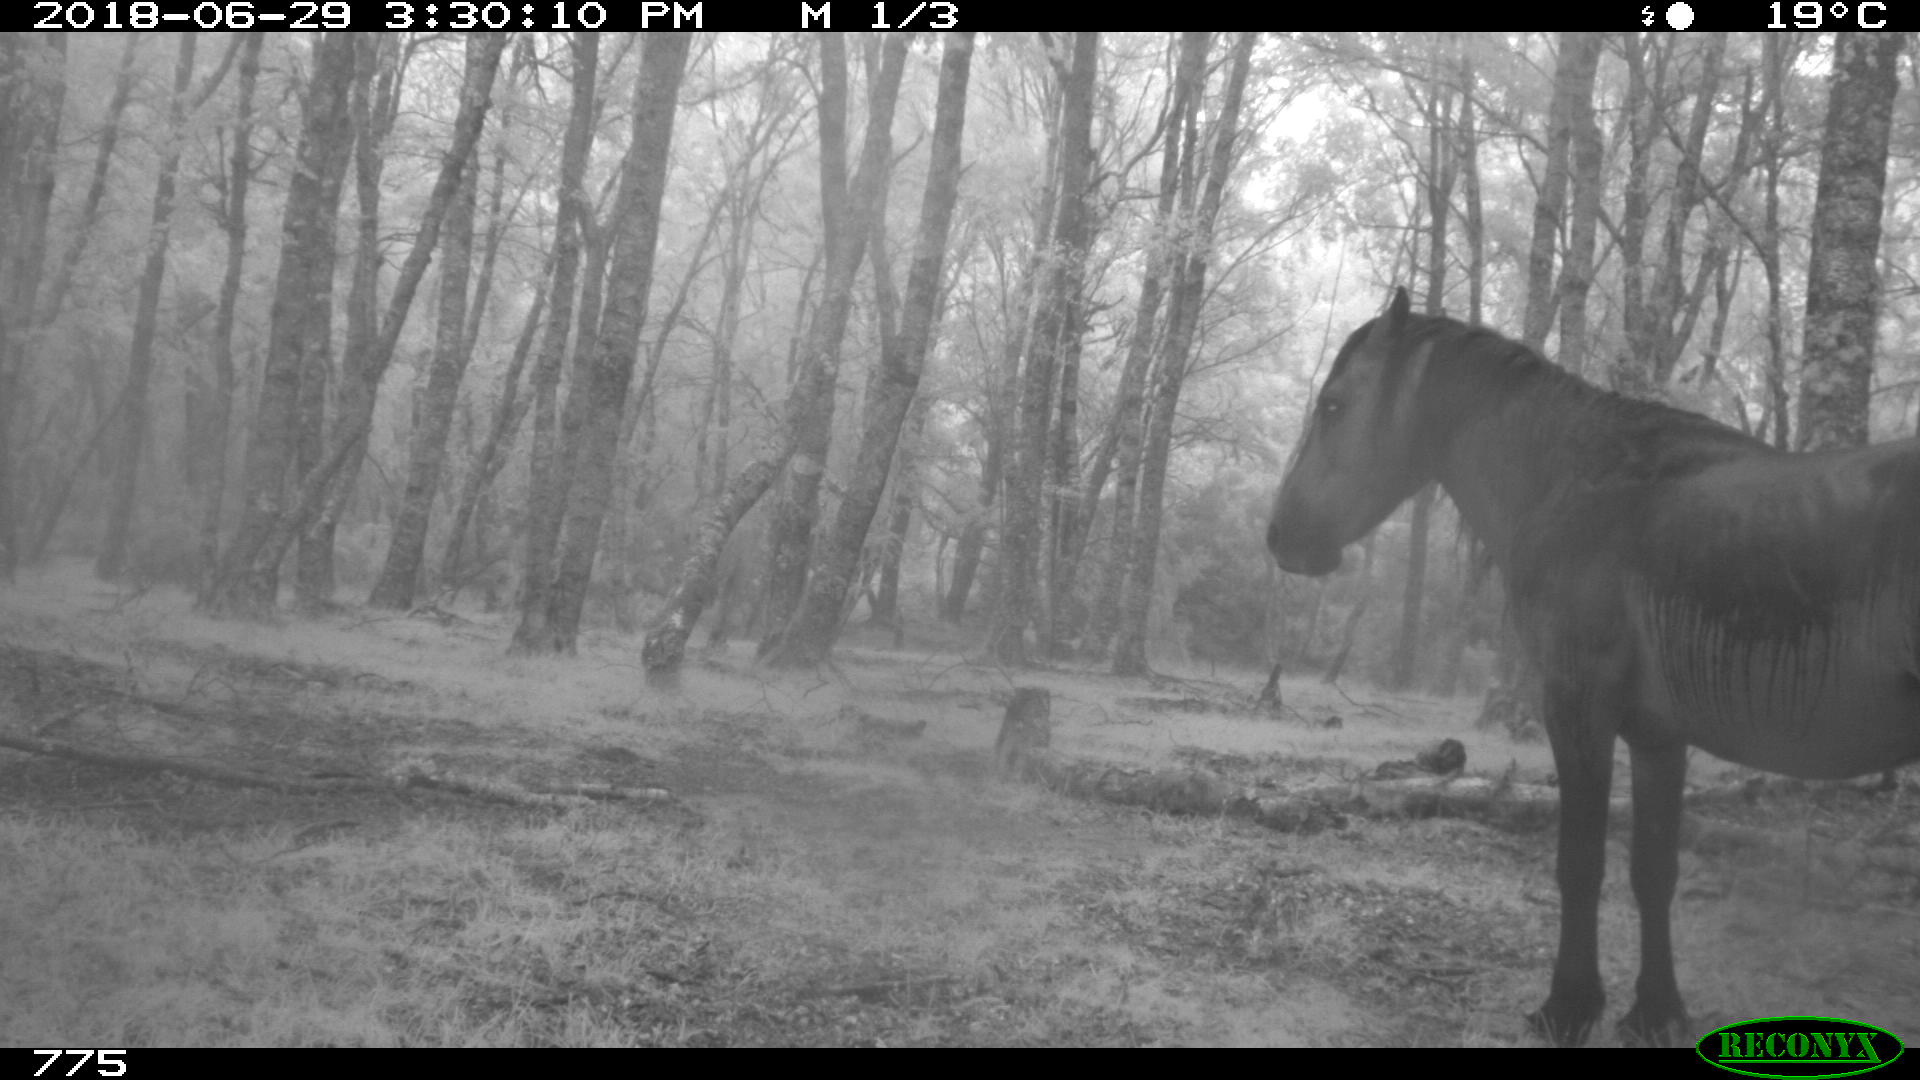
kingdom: Animalia
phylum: Chordata
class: Mammalia
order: Perissodactyla
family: Equidae
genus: Equus
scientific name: Equus caballus
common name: Horse
